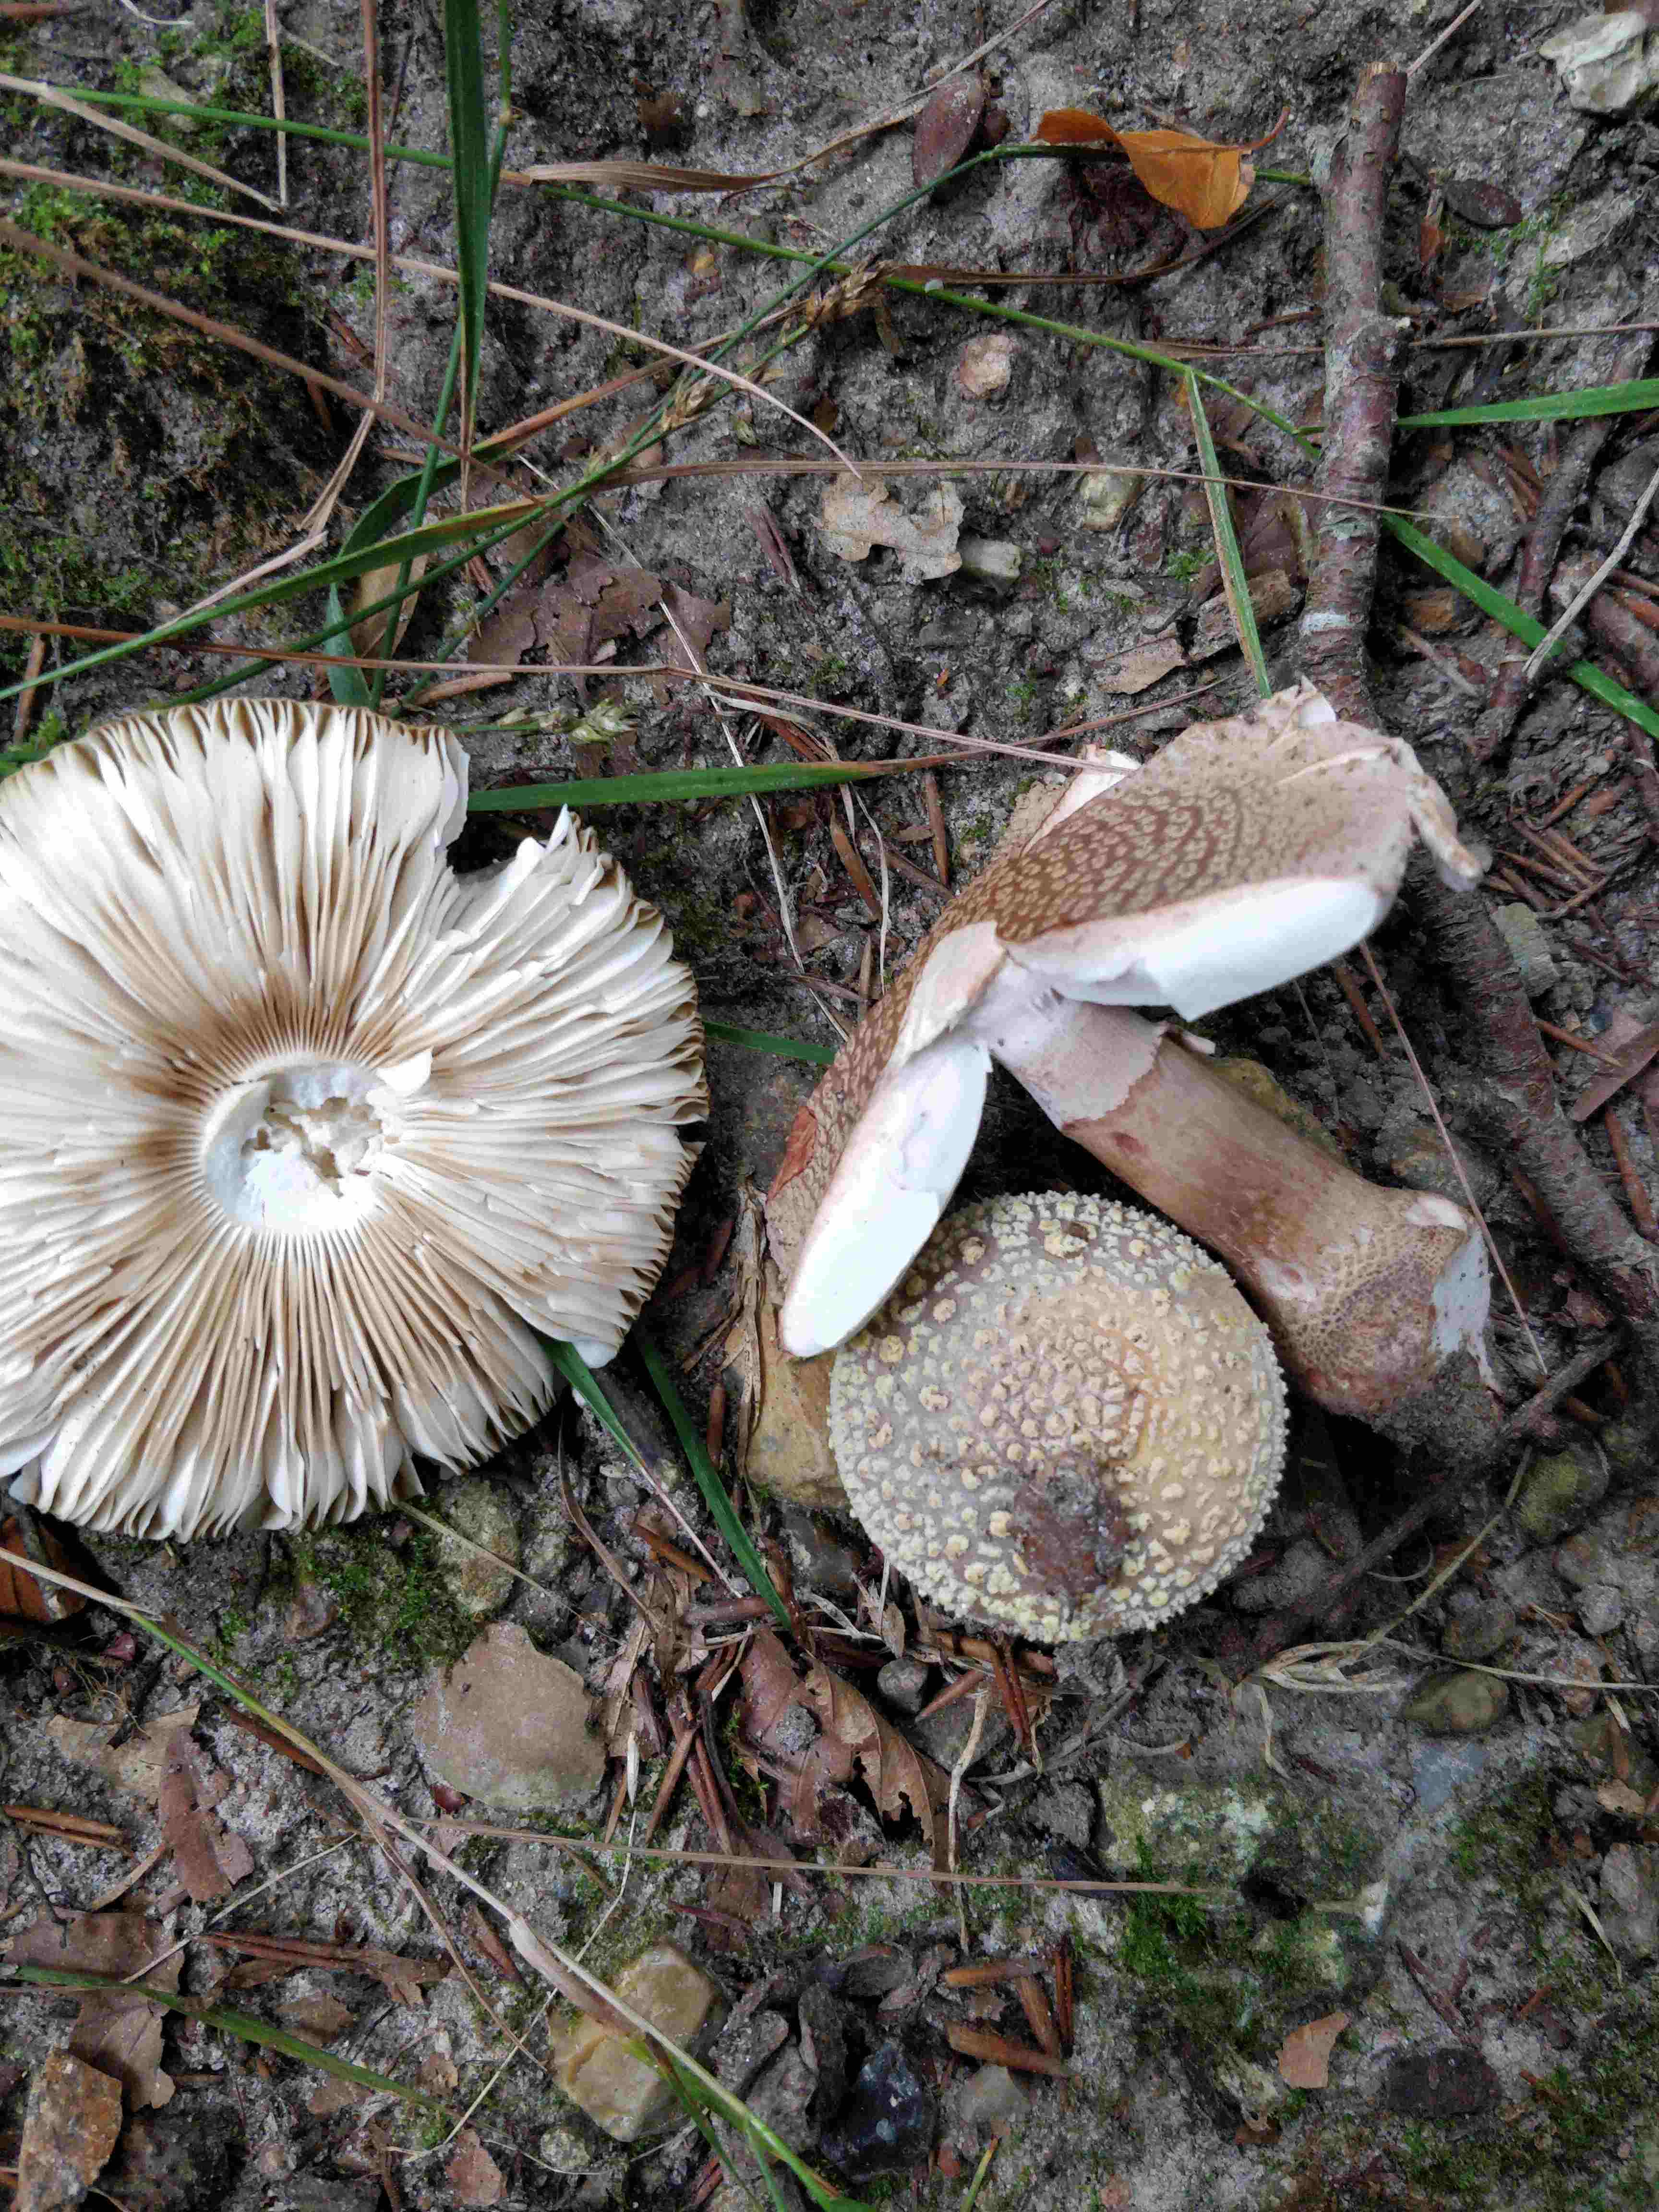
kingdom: Fungi
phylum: Basidiomycota
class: Agaricomycetes
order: Agaricales
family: Amanitaceae
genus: Amanita
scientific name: Amanita rubescens
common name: rødmende fluesvamp
